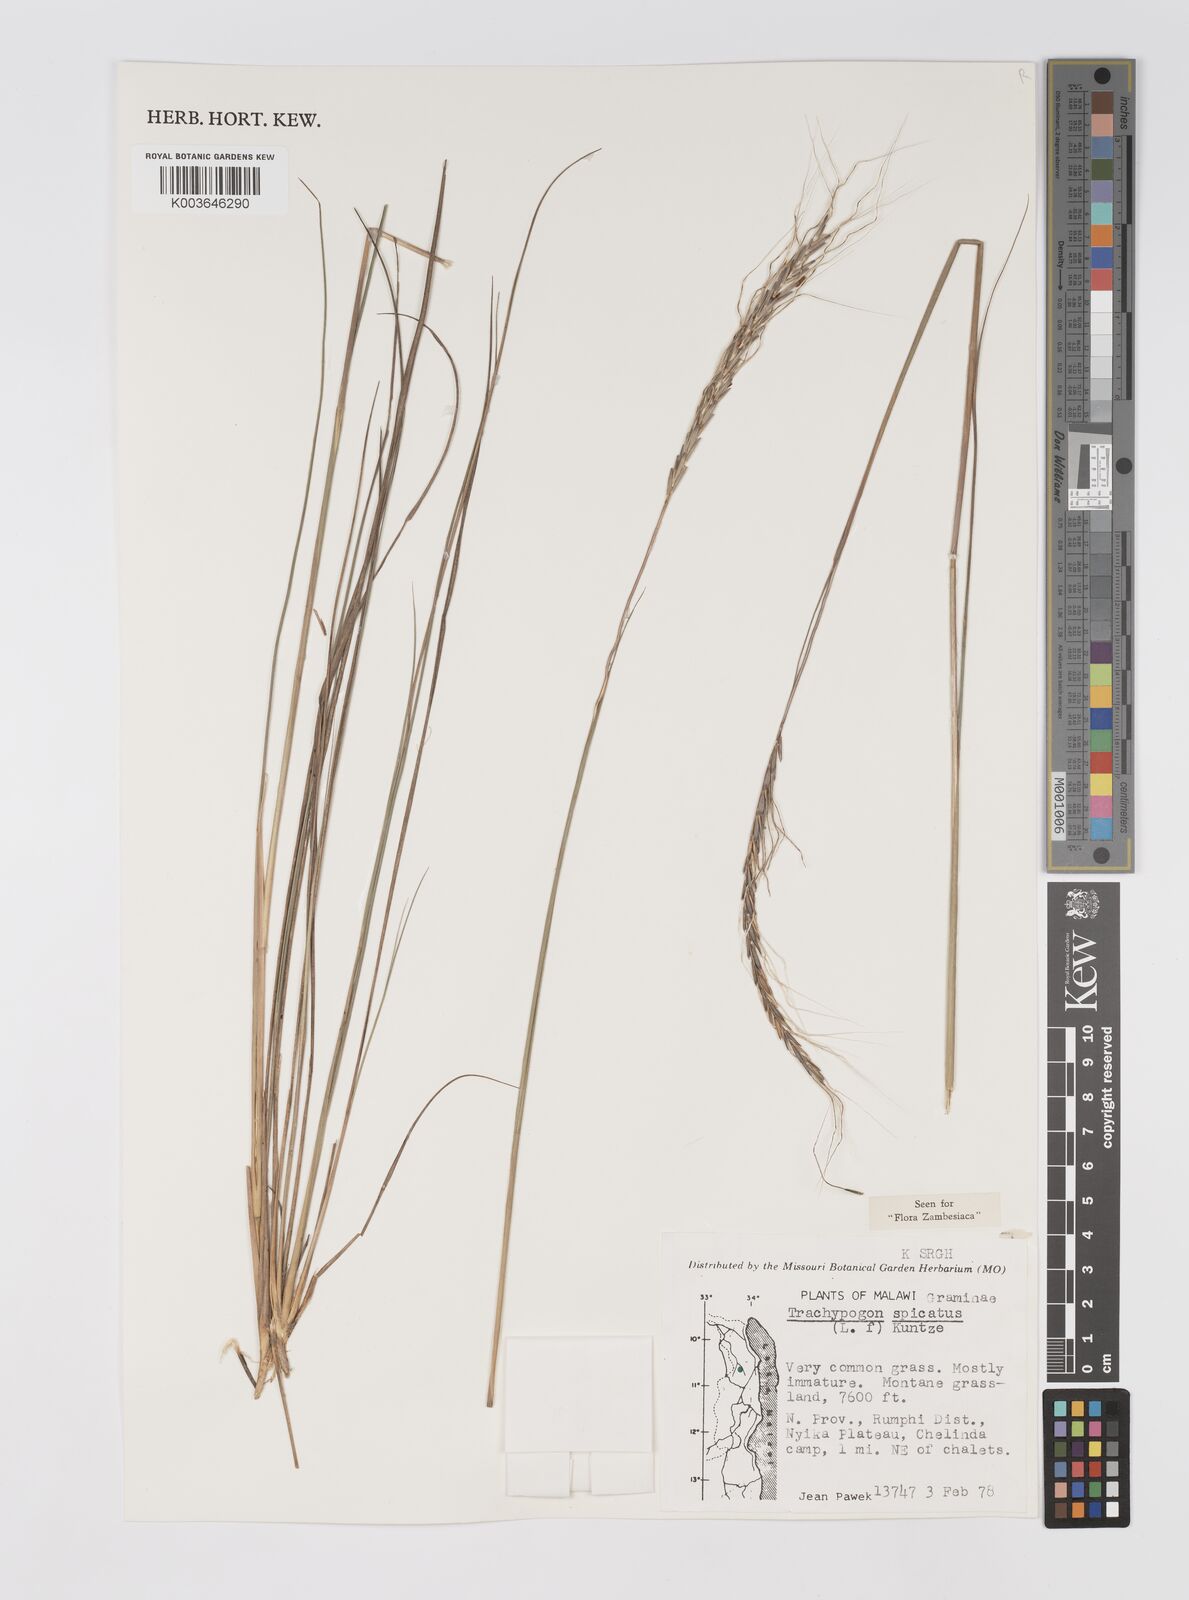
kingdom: Plantae
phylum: Tracheophyta
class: Liliopsida
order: Poales
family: Poaceae
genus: Trachypogon
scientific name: Trachypogon spicatus
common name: Crinkle-awn
